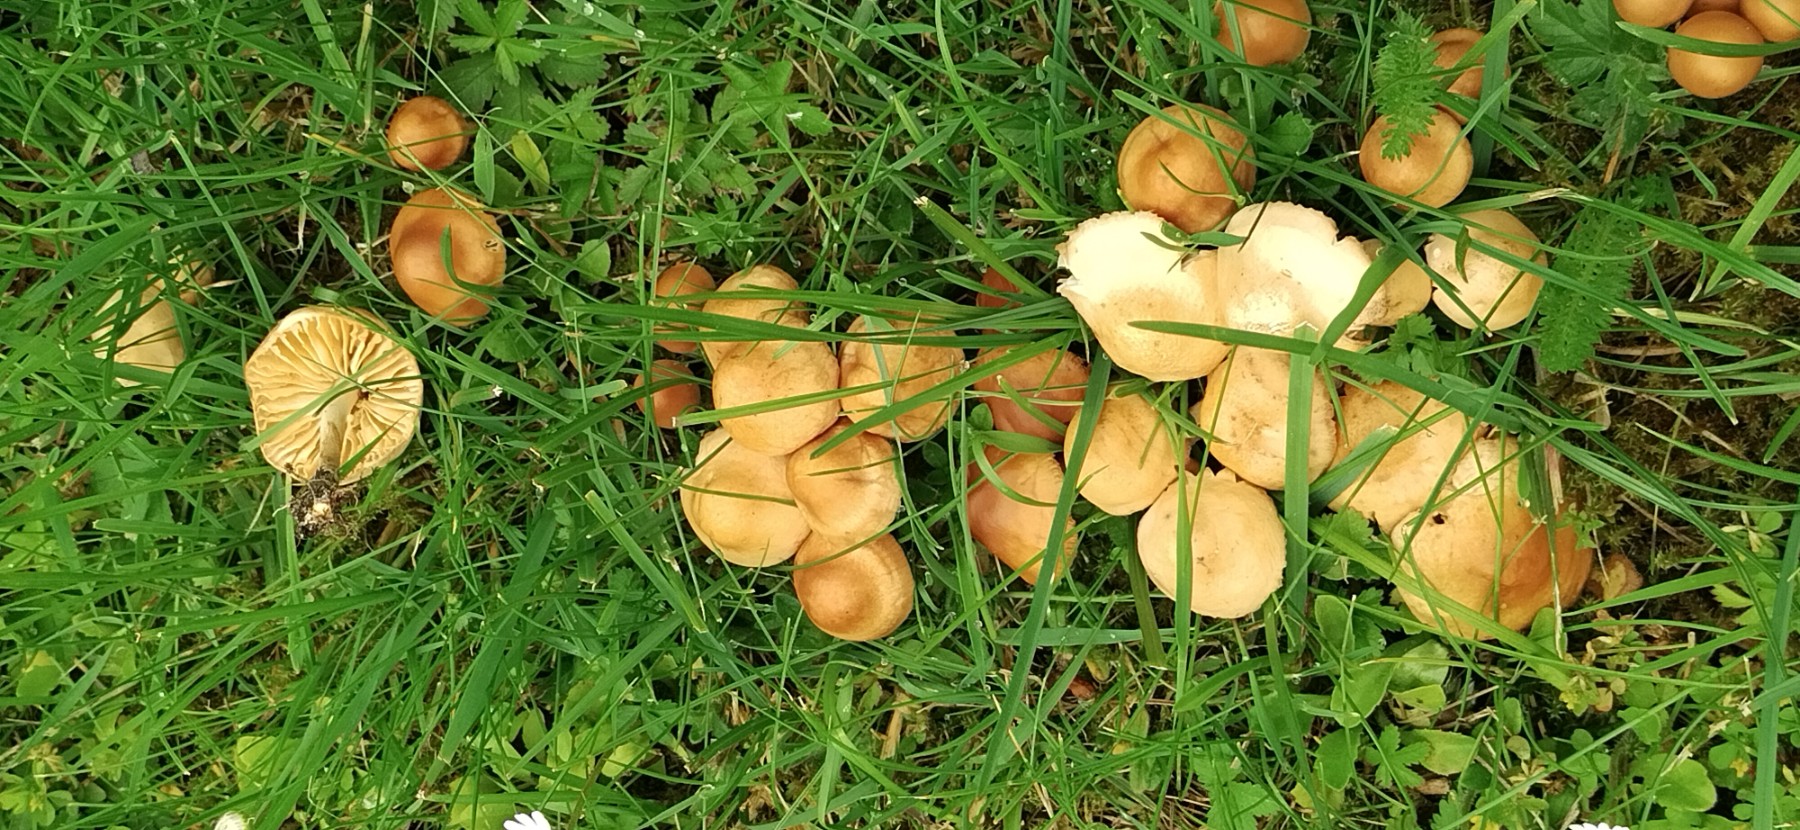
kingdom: Fungi
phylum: Basidiomycota
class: Agaricomycetes
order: Agaricales
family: Marasmiaceae
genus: Marasmius
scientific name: Marasmius oreades
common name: elledans-bruskhat
